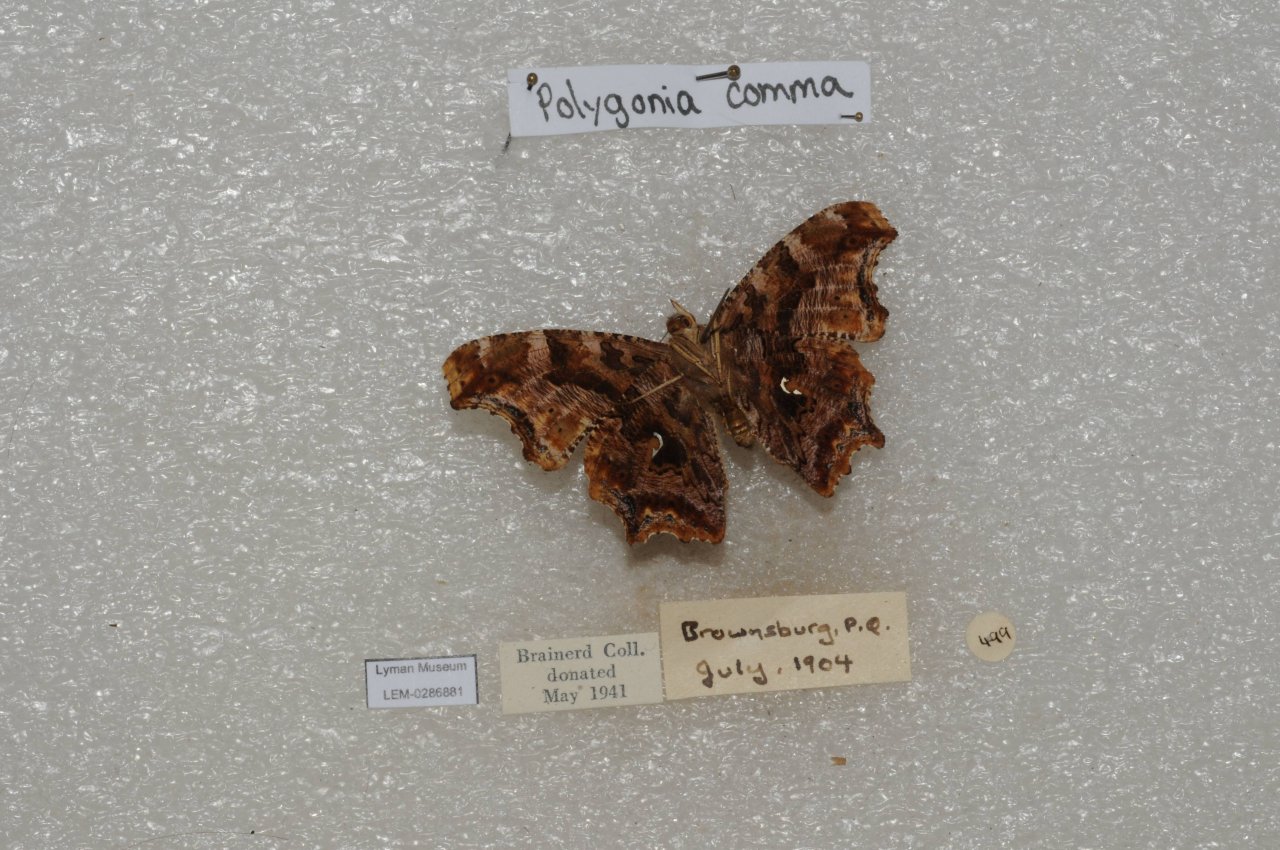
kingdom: Animalia
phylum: Arthropoda
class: Insecta
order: Lepidoptera
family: Nymphalidae
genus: Polygonia
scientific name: Polygonia comma
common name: Eastern Comma
